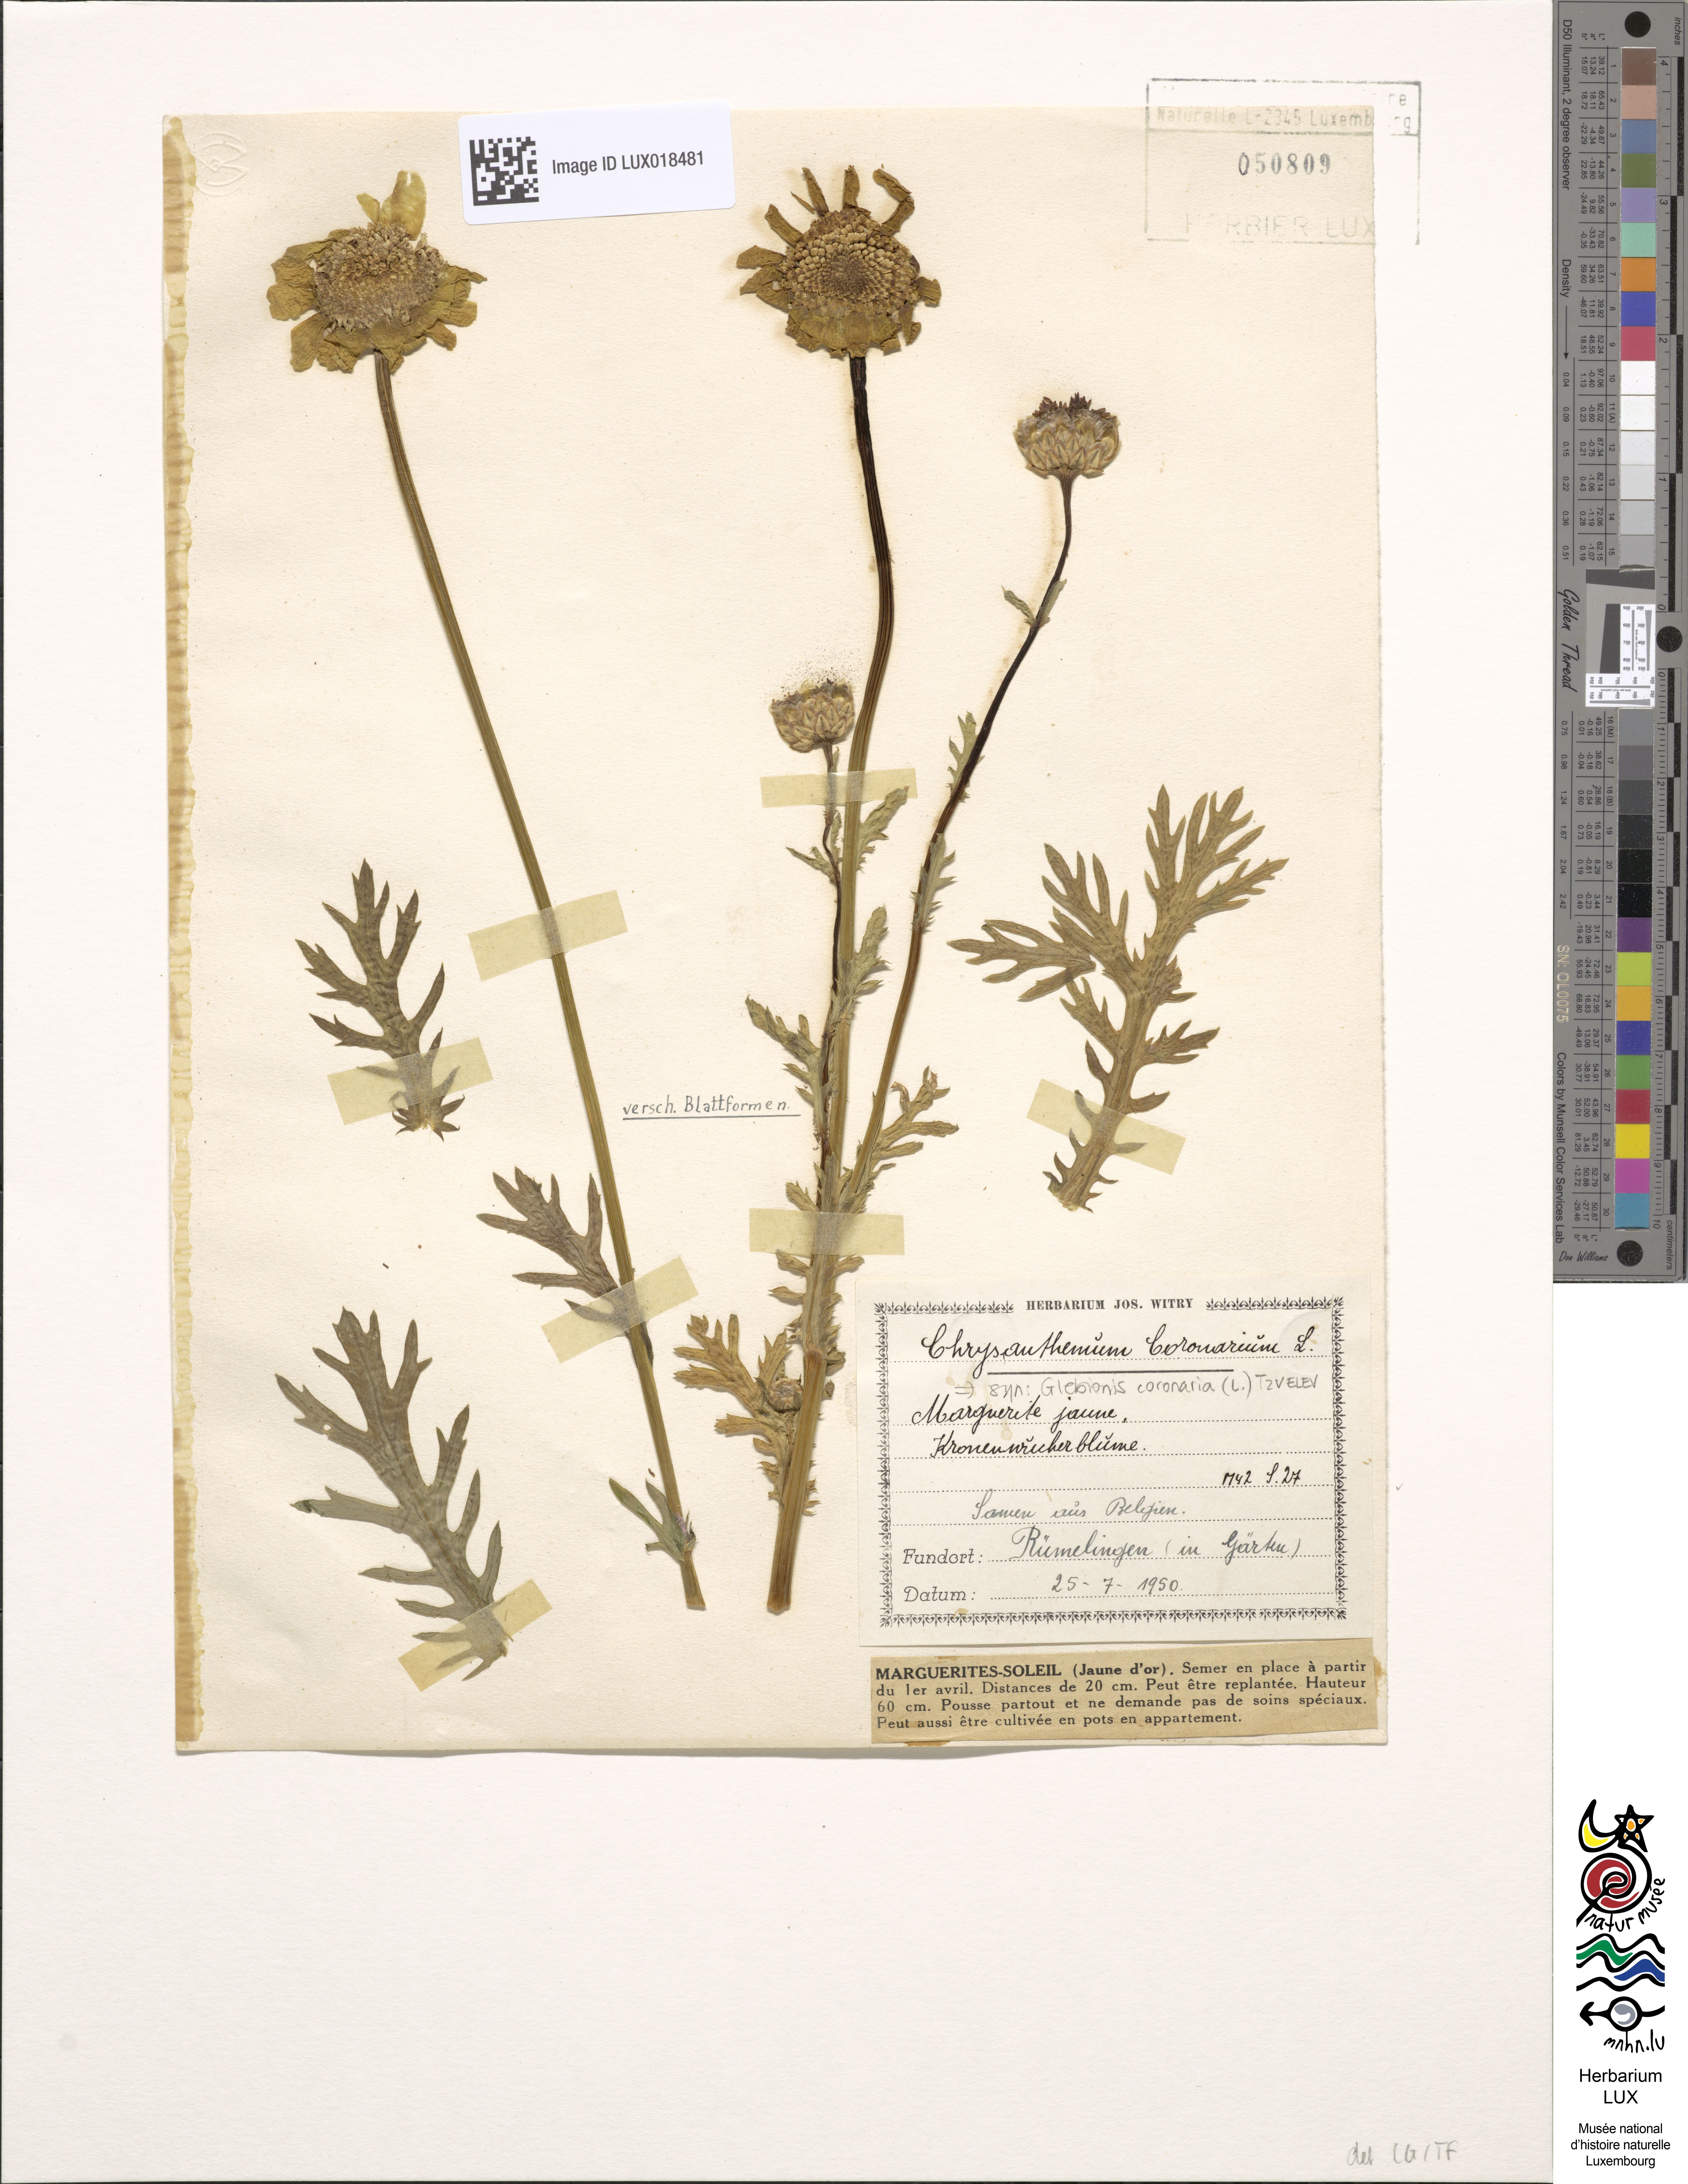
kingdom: Plantae
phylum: Tracheophyta
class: Magnoliopsida
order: Asterales
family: Asteraceae
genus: Glebionis
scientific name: Glebionis coronaria
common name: Crowndaisy
